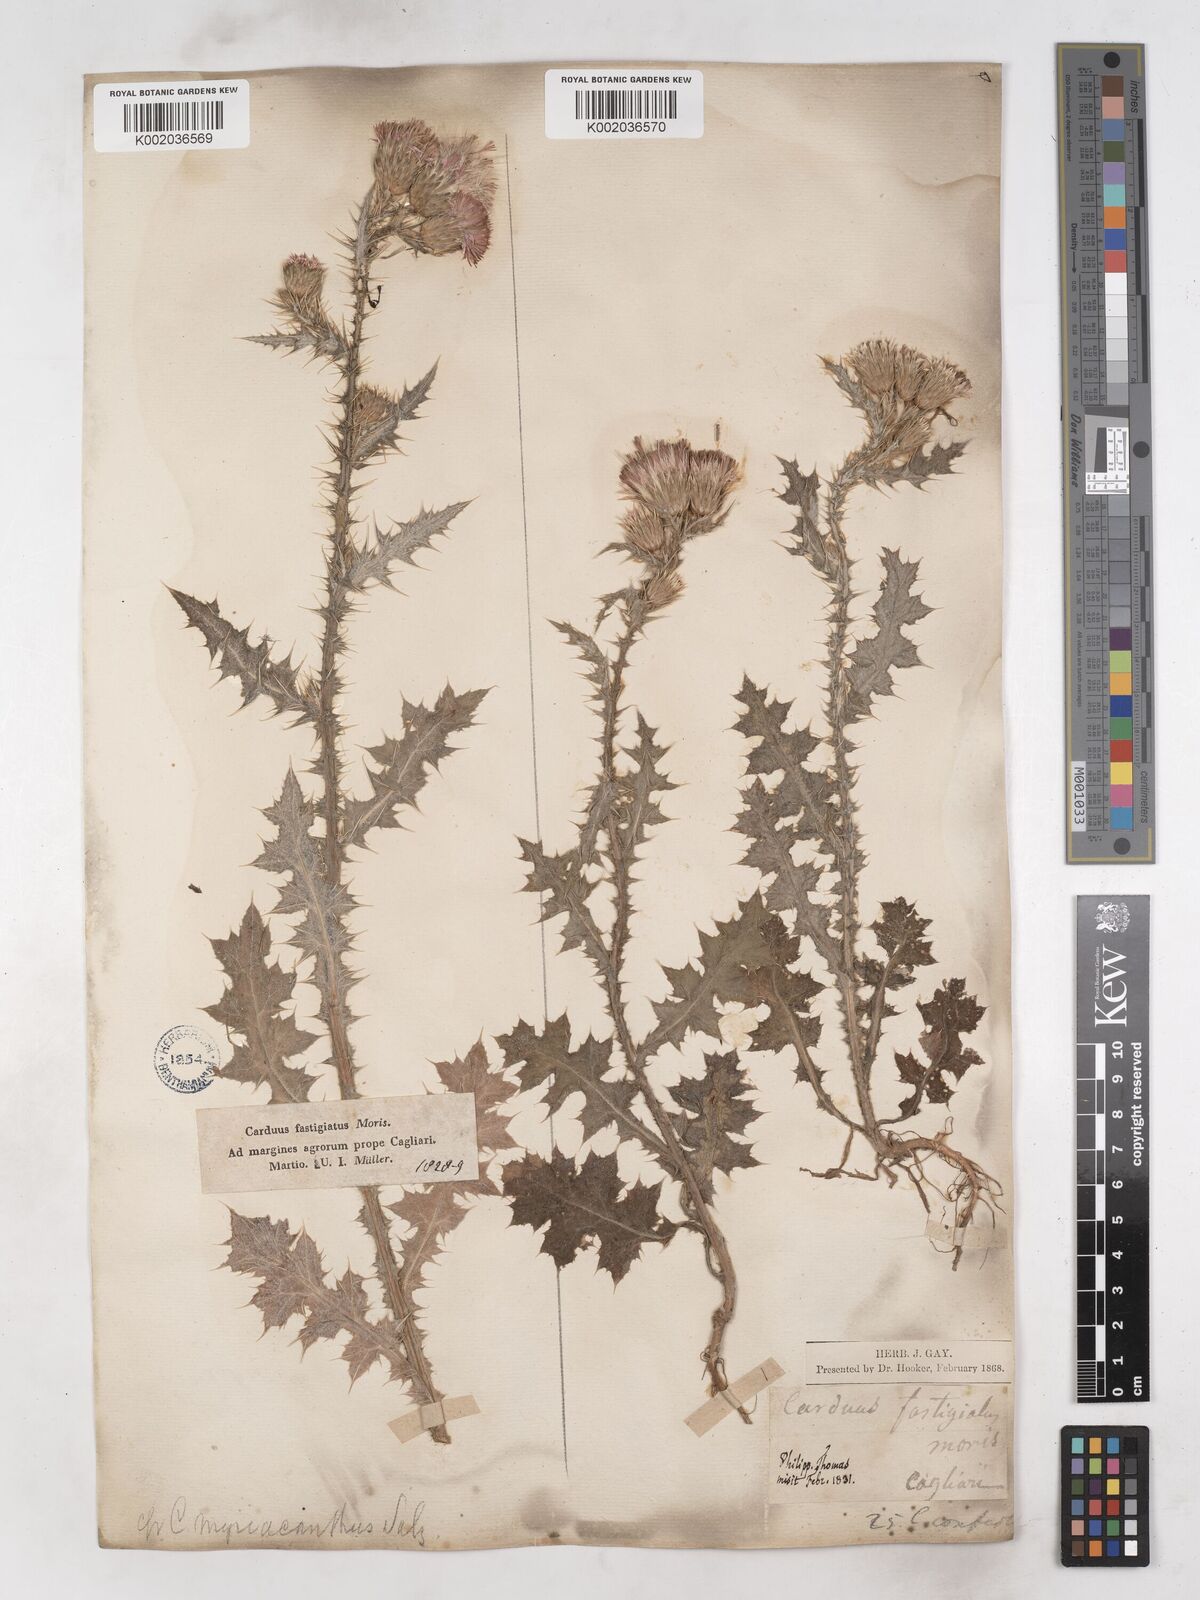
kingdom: Plantae
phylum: Tracheophyta
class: Magnoliopsida
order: Asterales
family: Asteraceae
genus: Carduus
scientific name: Carduus argyroa
